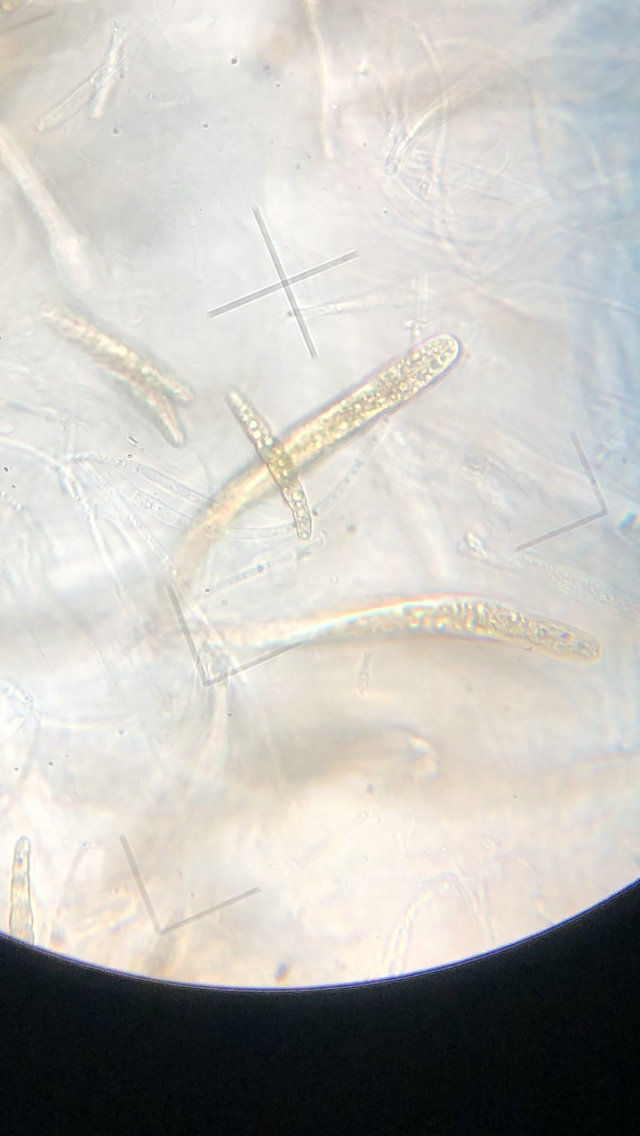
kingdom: Fungi
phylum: Ascomycota
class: Dothideomycetes
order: Pleosporales
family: Leptosphaeriaceae
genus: Leptosphaeria
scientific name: Leptosphaeria acuta
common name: spids kulkegle
